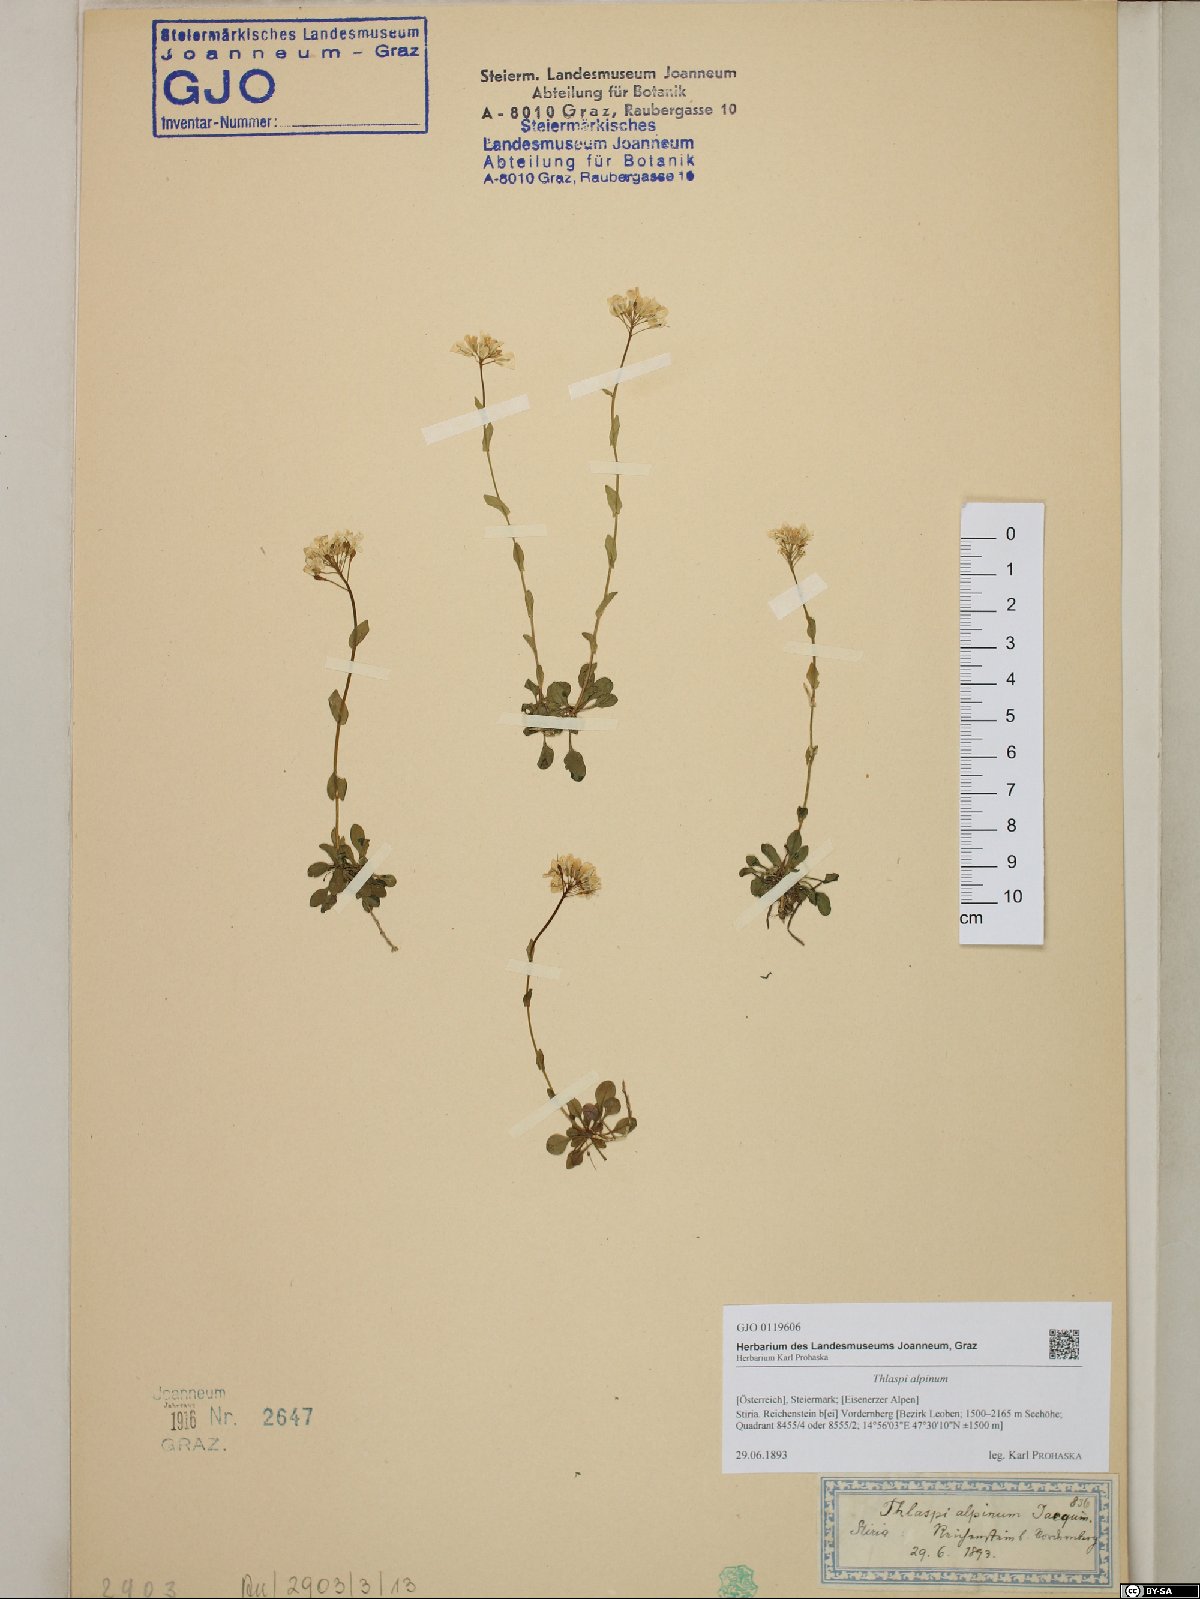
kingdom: Plantae
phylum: Tracheophyta
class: Magnoliopsida
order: Brassicales
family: Brassicaceae
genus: Noccaea
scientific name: Noccaea alpestris
